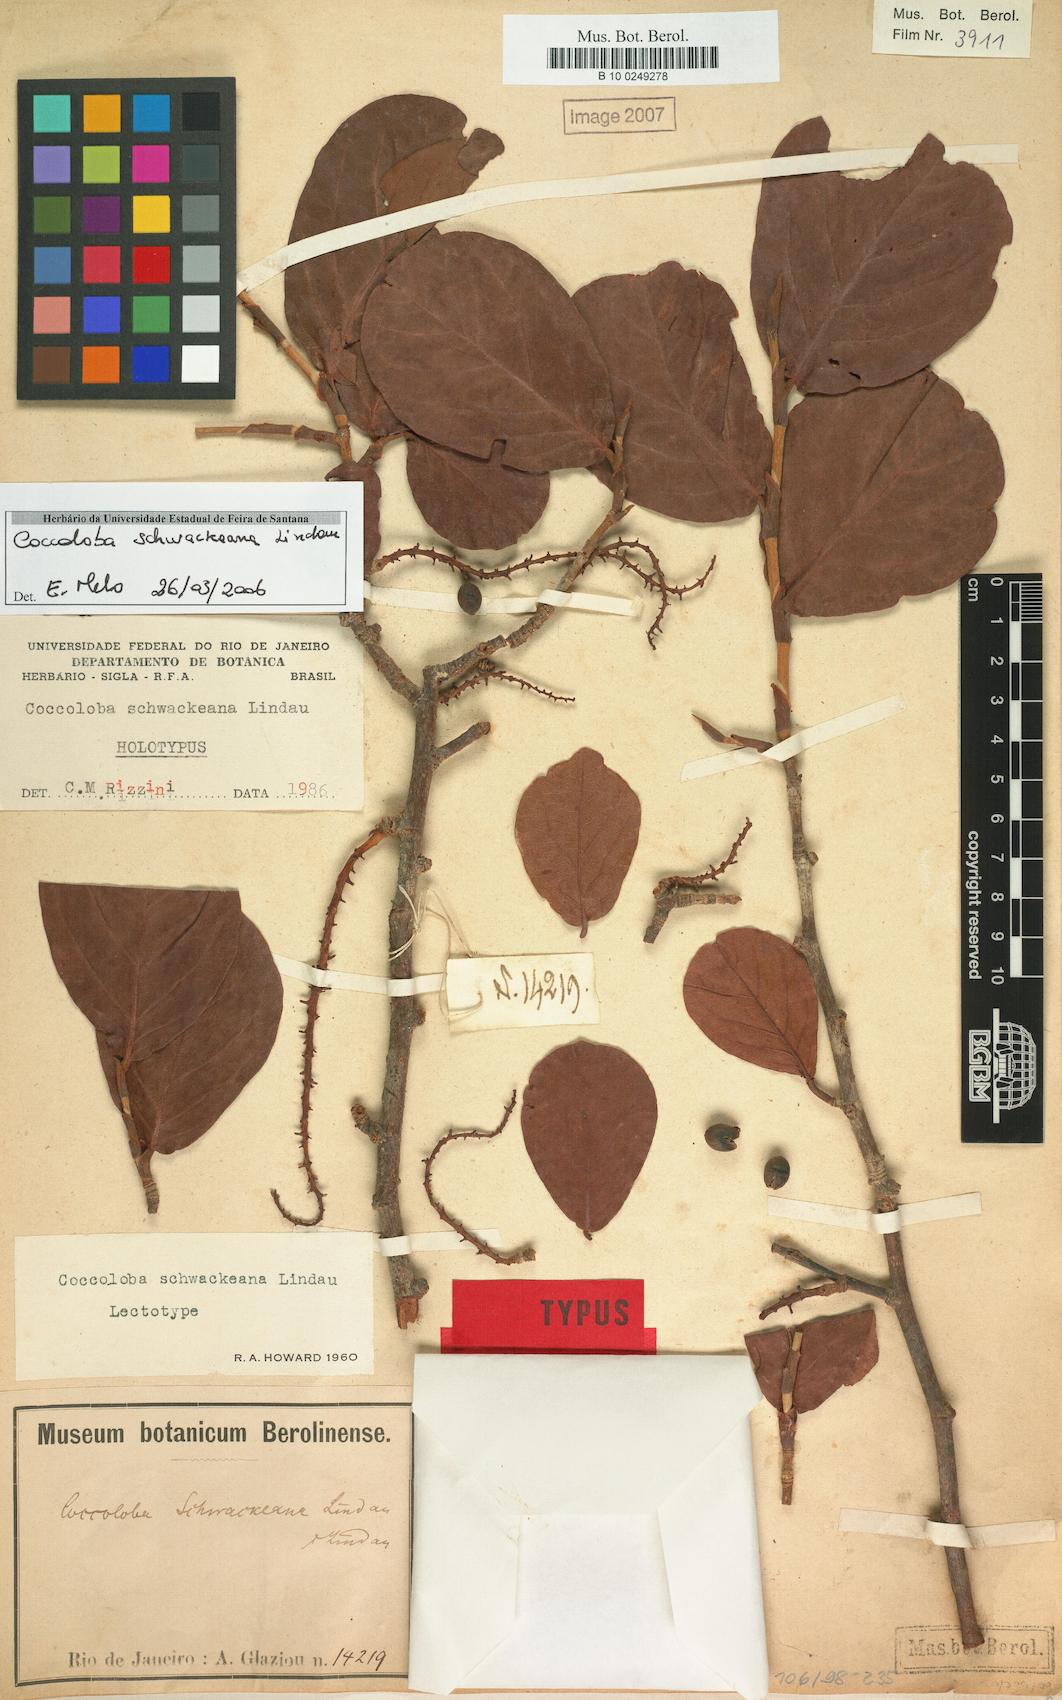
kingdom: Plantae
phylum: Tracheophyta
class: Magnoliopsida
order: Caryophyllales
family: Polygonaceae
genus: Coccoloba
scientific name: Coccoloba schwackeana
